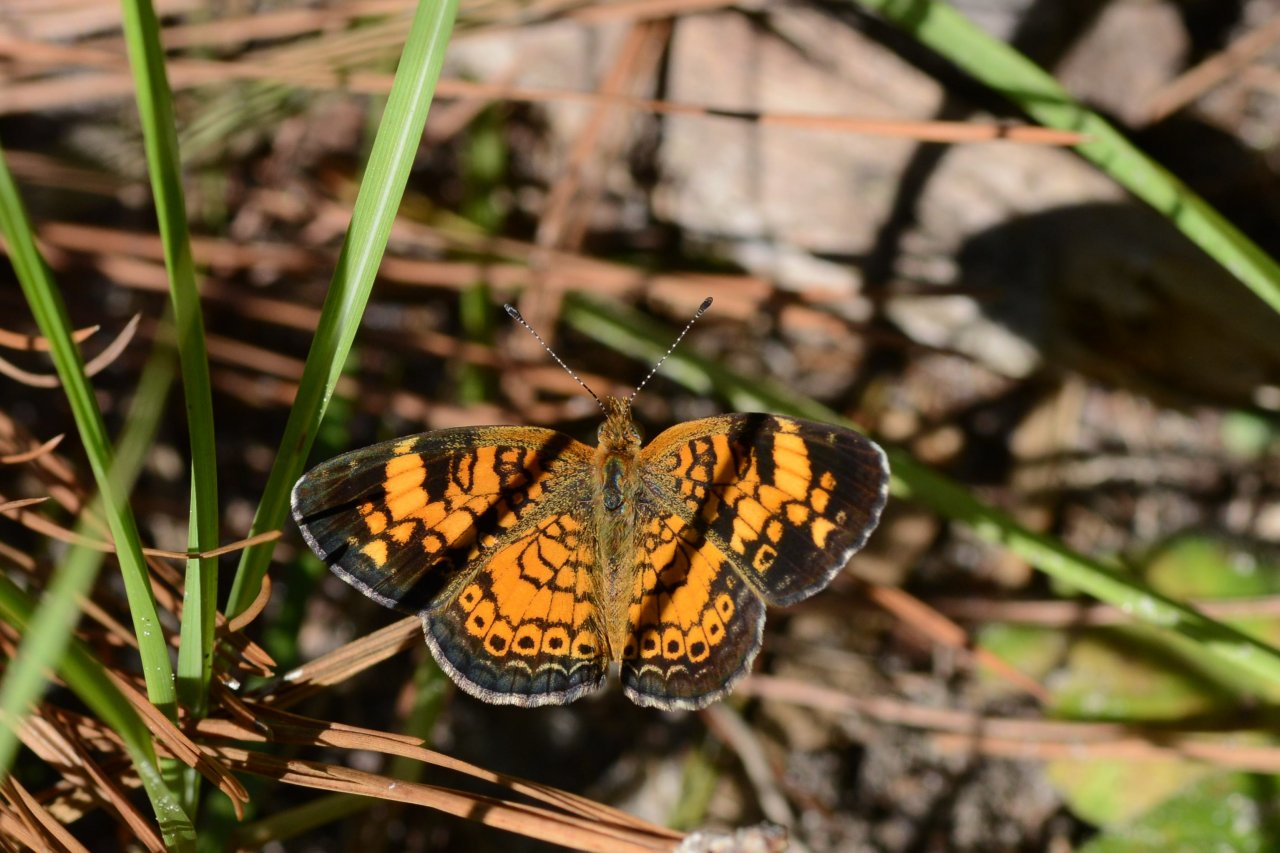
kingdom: Animalia
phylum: Arthropoda
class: Insecta
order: Lepidoptera
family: Nymphalidae
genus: Phyciodes
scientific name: Phyciodes tharos
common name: Pearl Crescent
